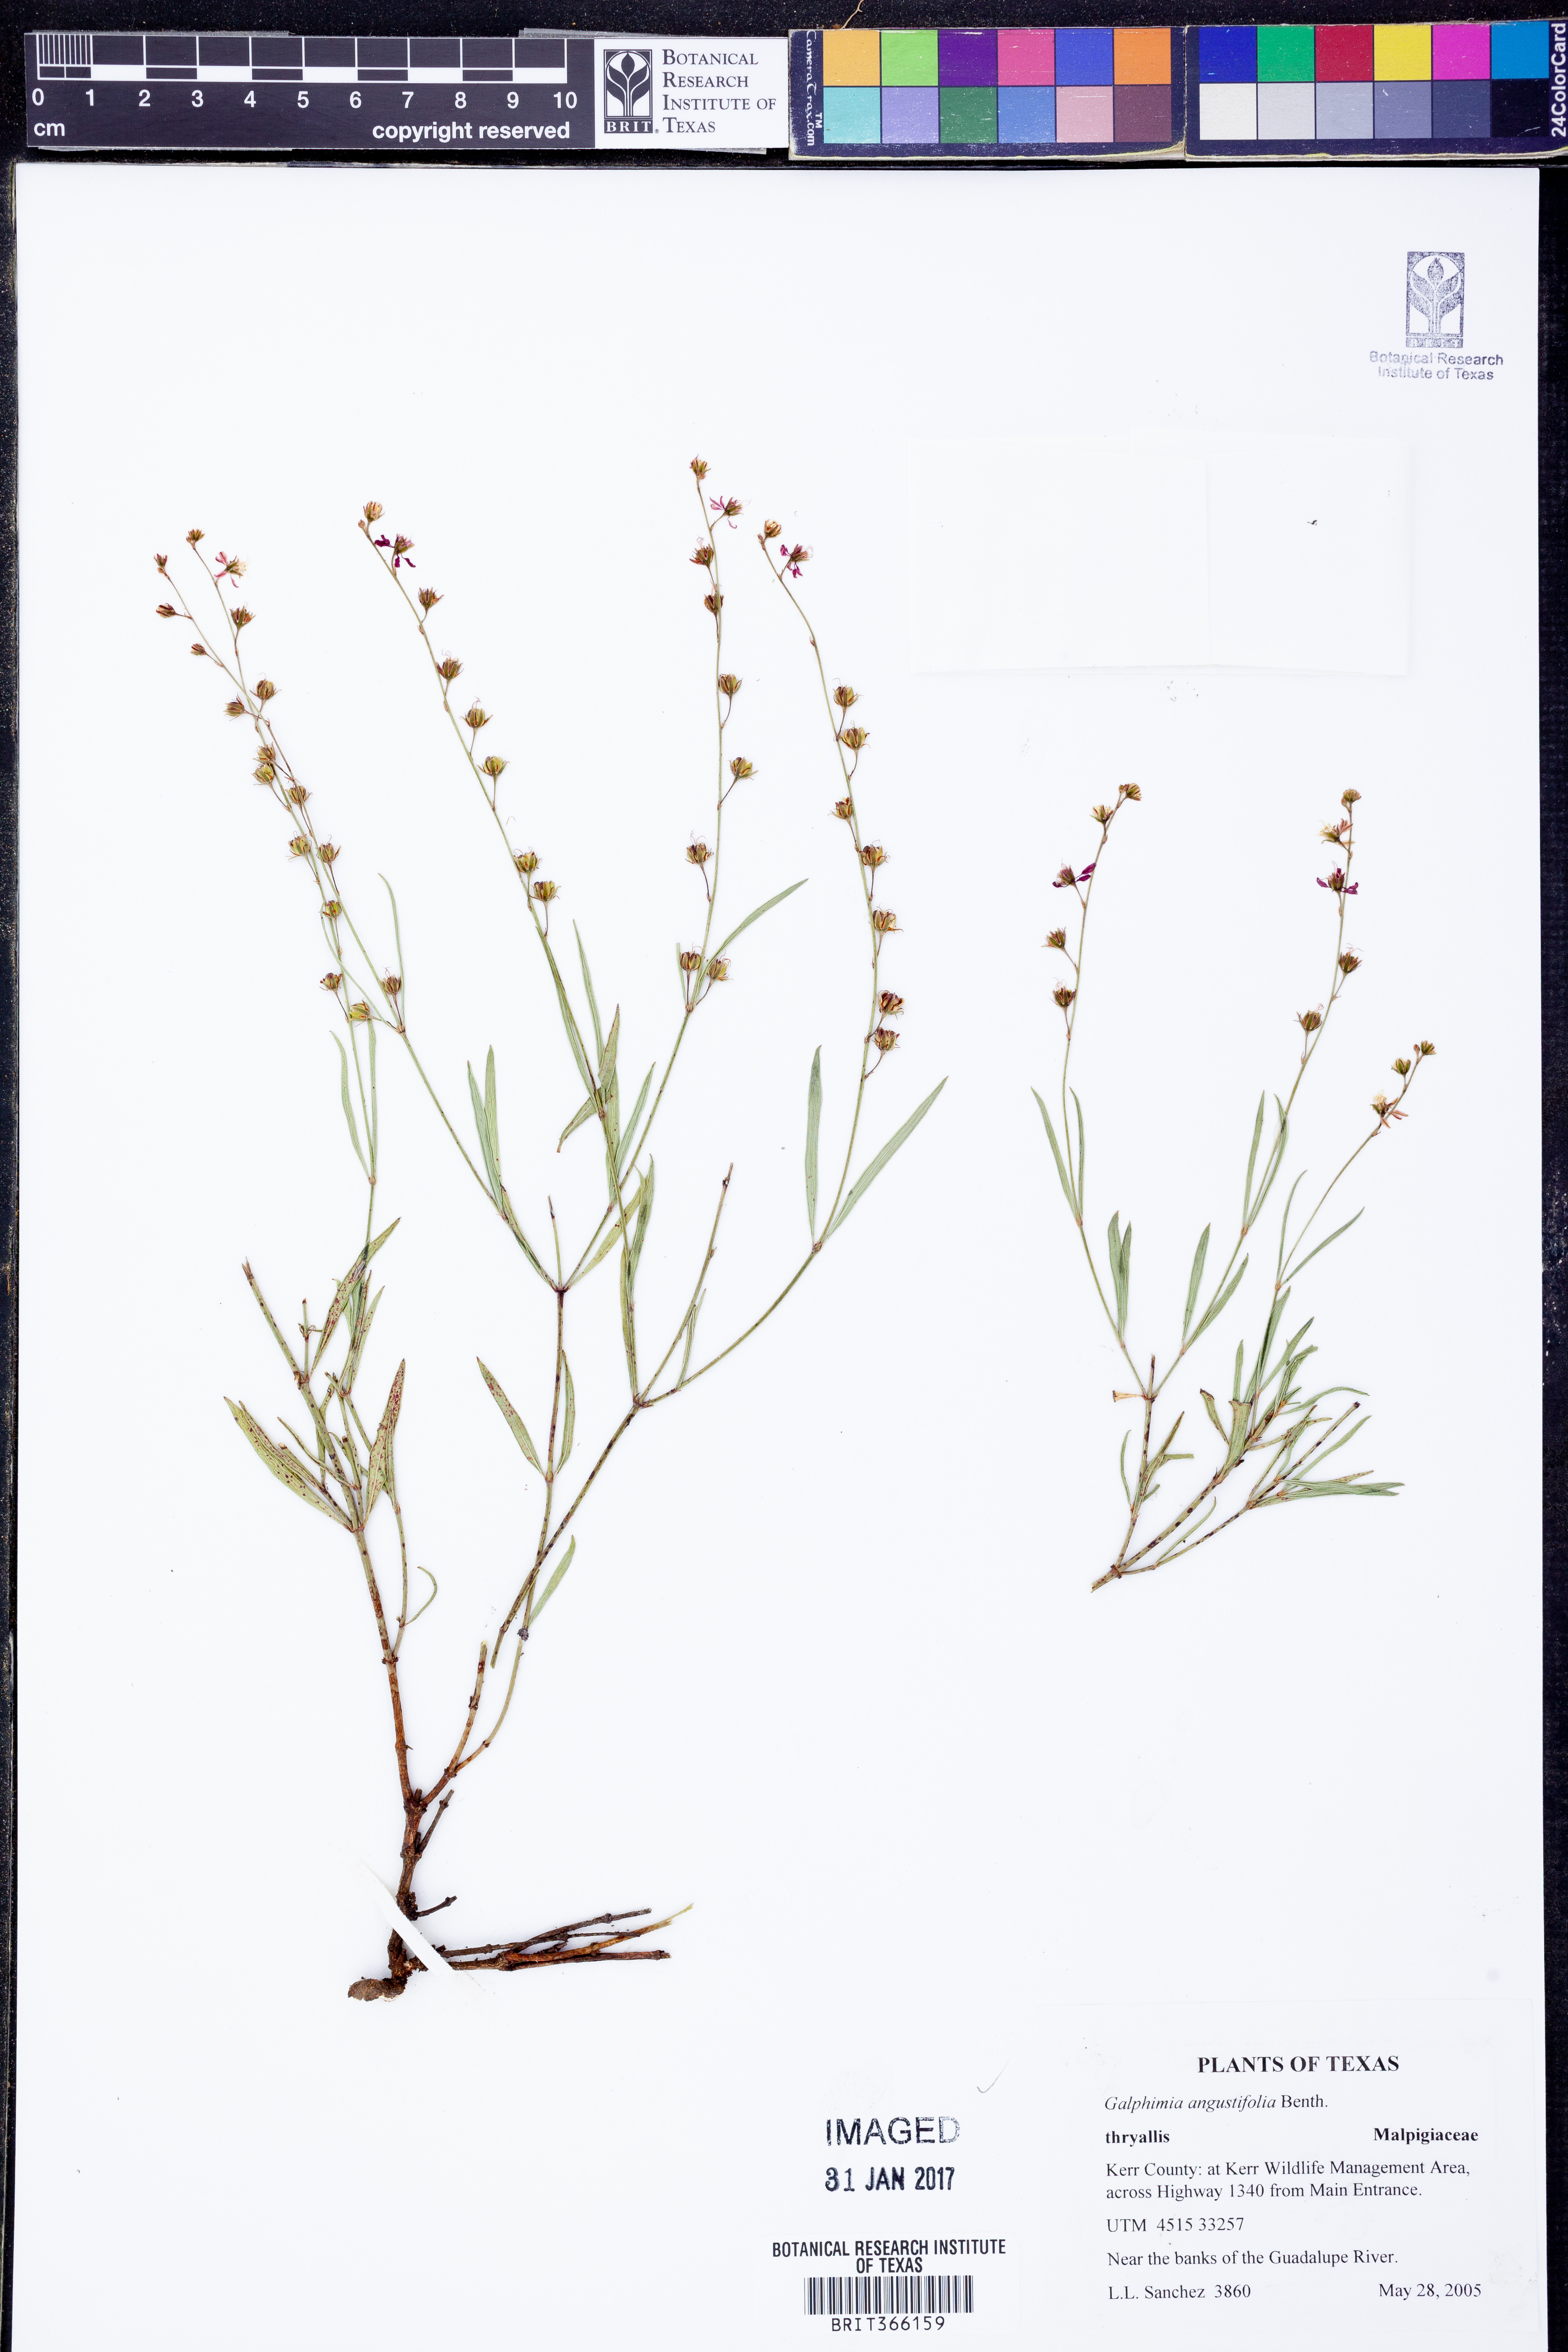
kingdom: Plantae
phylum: Tracheophyta
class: Magnoliopsida
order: Malpighiales
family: Malpighiaceae
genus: Galphimia
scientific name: Galphimia angustifolia
